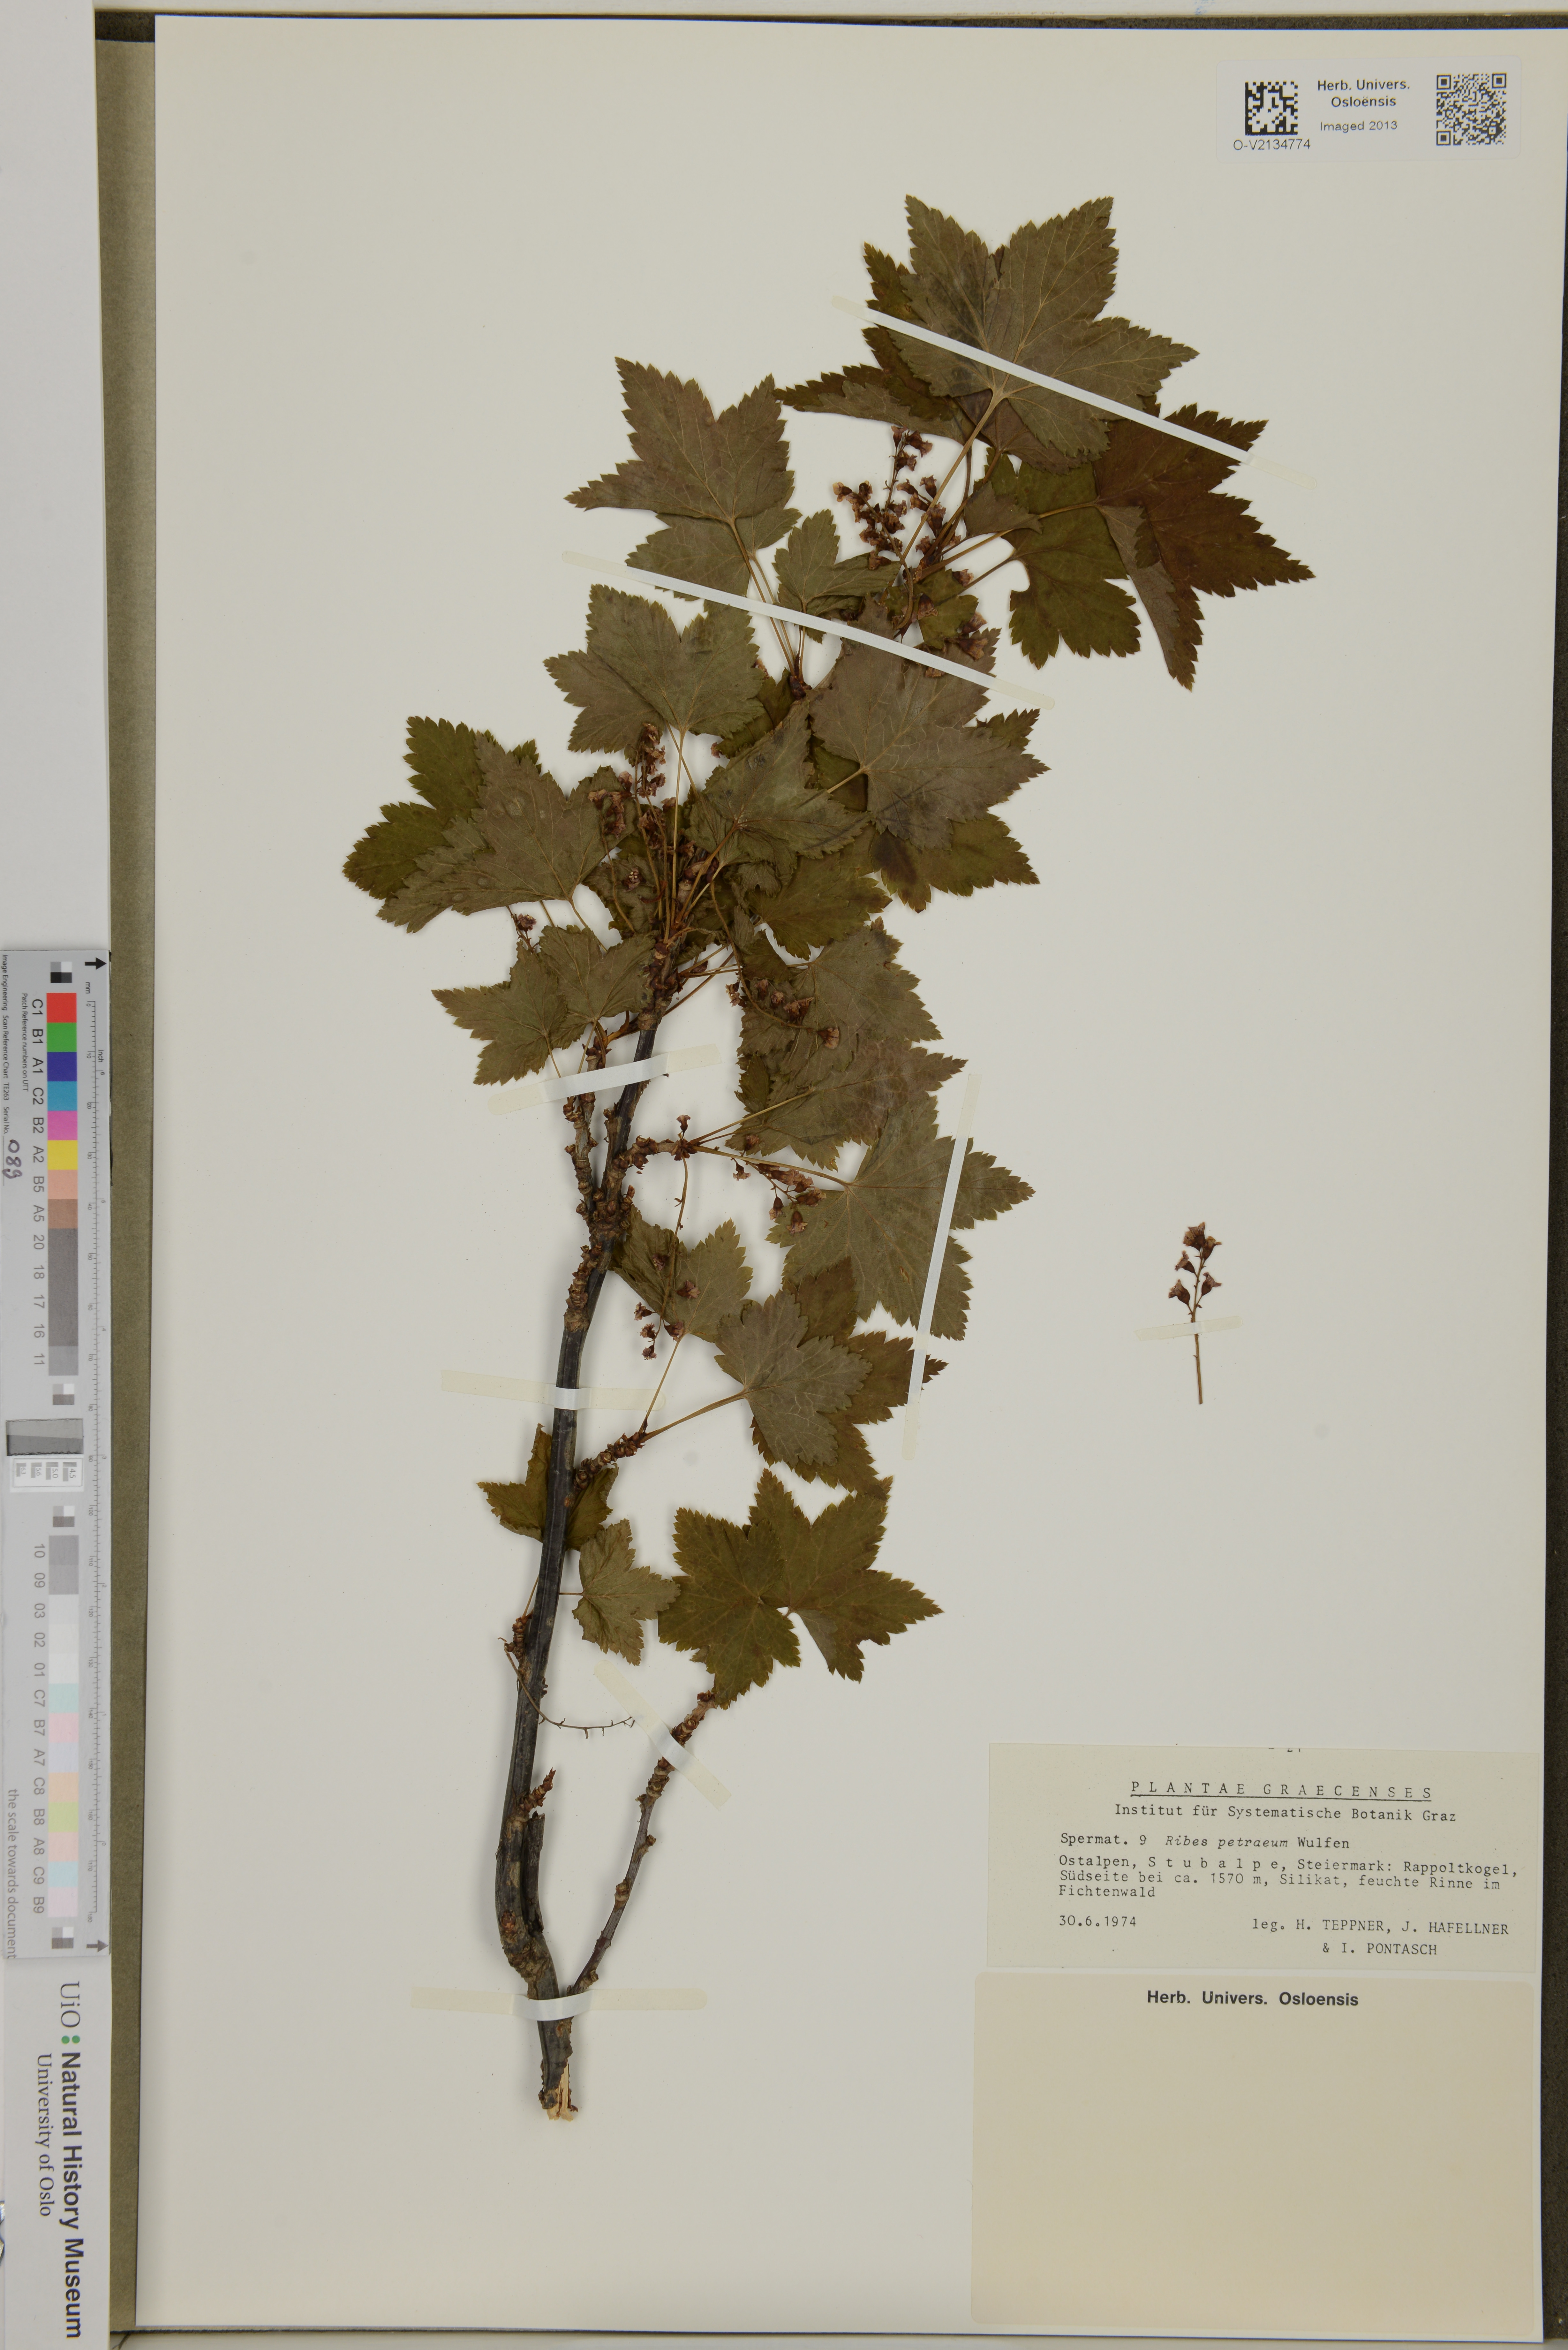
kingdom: Plantae
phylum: Tracheophyta
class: Magnoliopsida
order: Saxifragales
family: Grossulariaceae
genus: Ribes
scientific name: Ribes petraeum
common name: Rock currant
